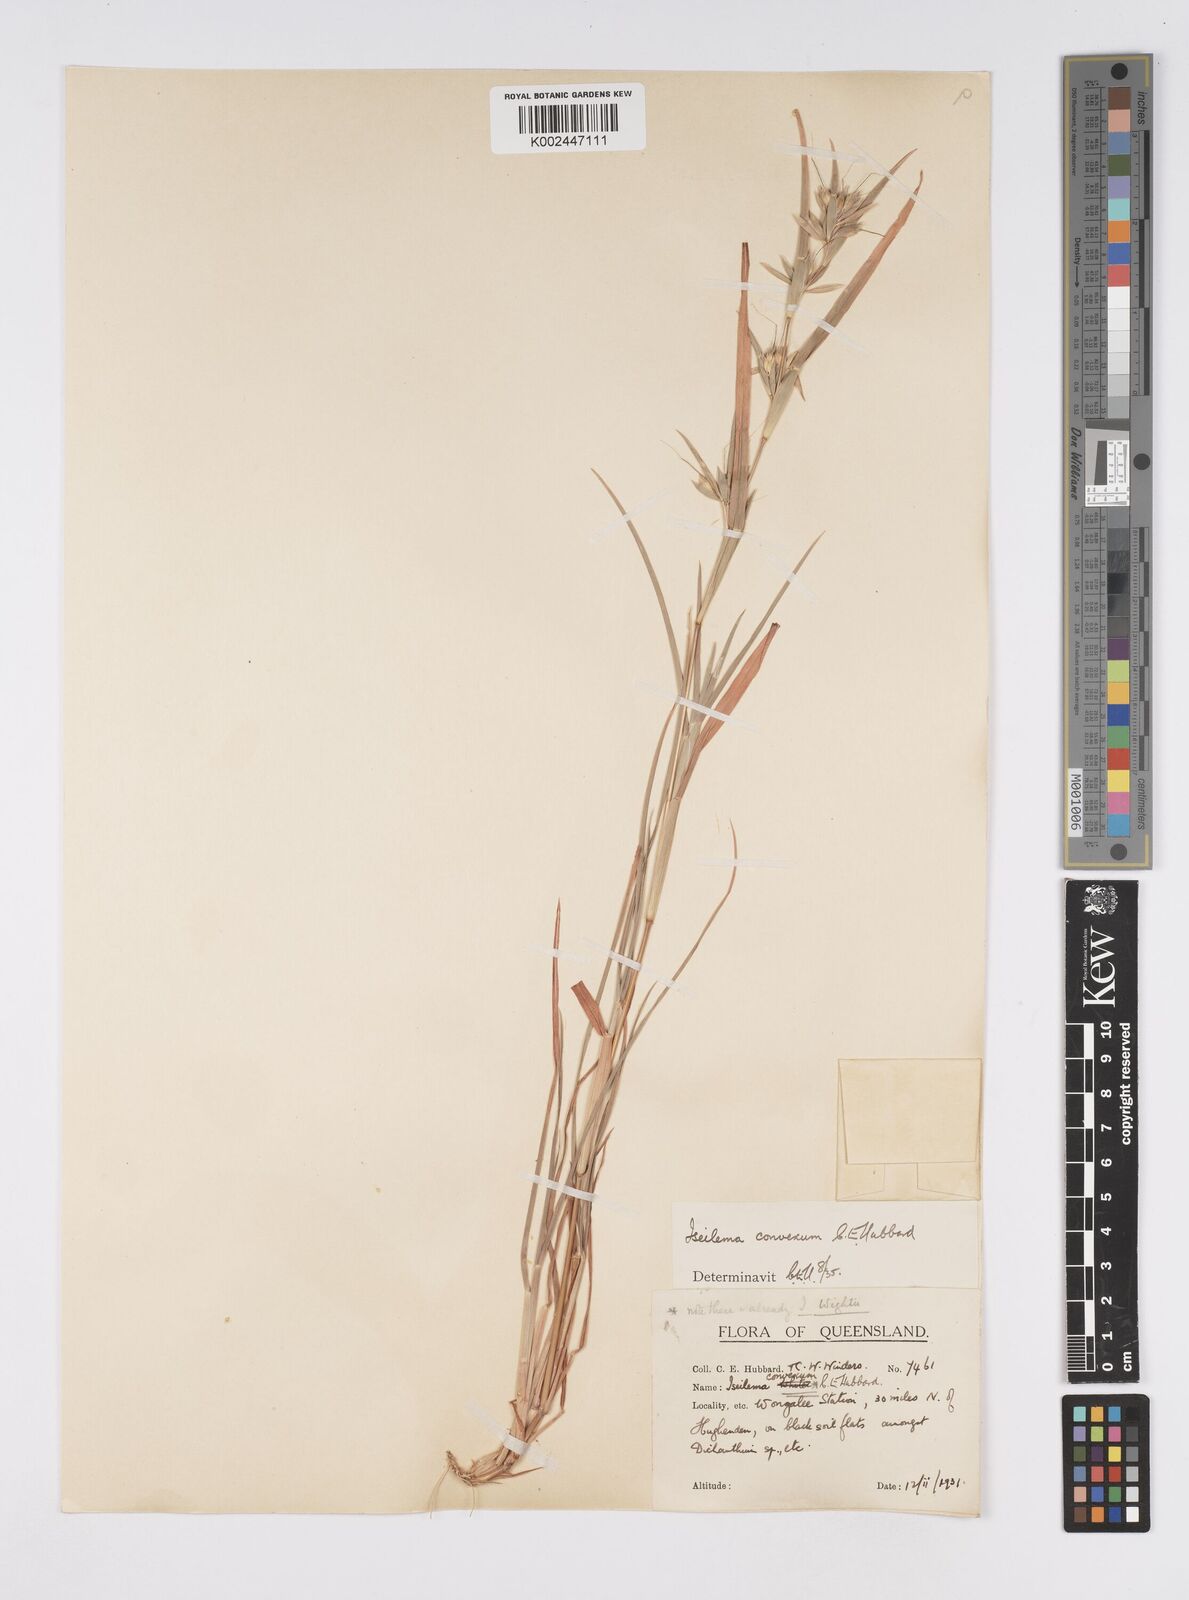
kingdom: Plantae
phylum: Tracheophyta
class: Liliopsida
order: Poales
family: Poaceae
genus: Iseilema
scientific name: Iseilema convexum
